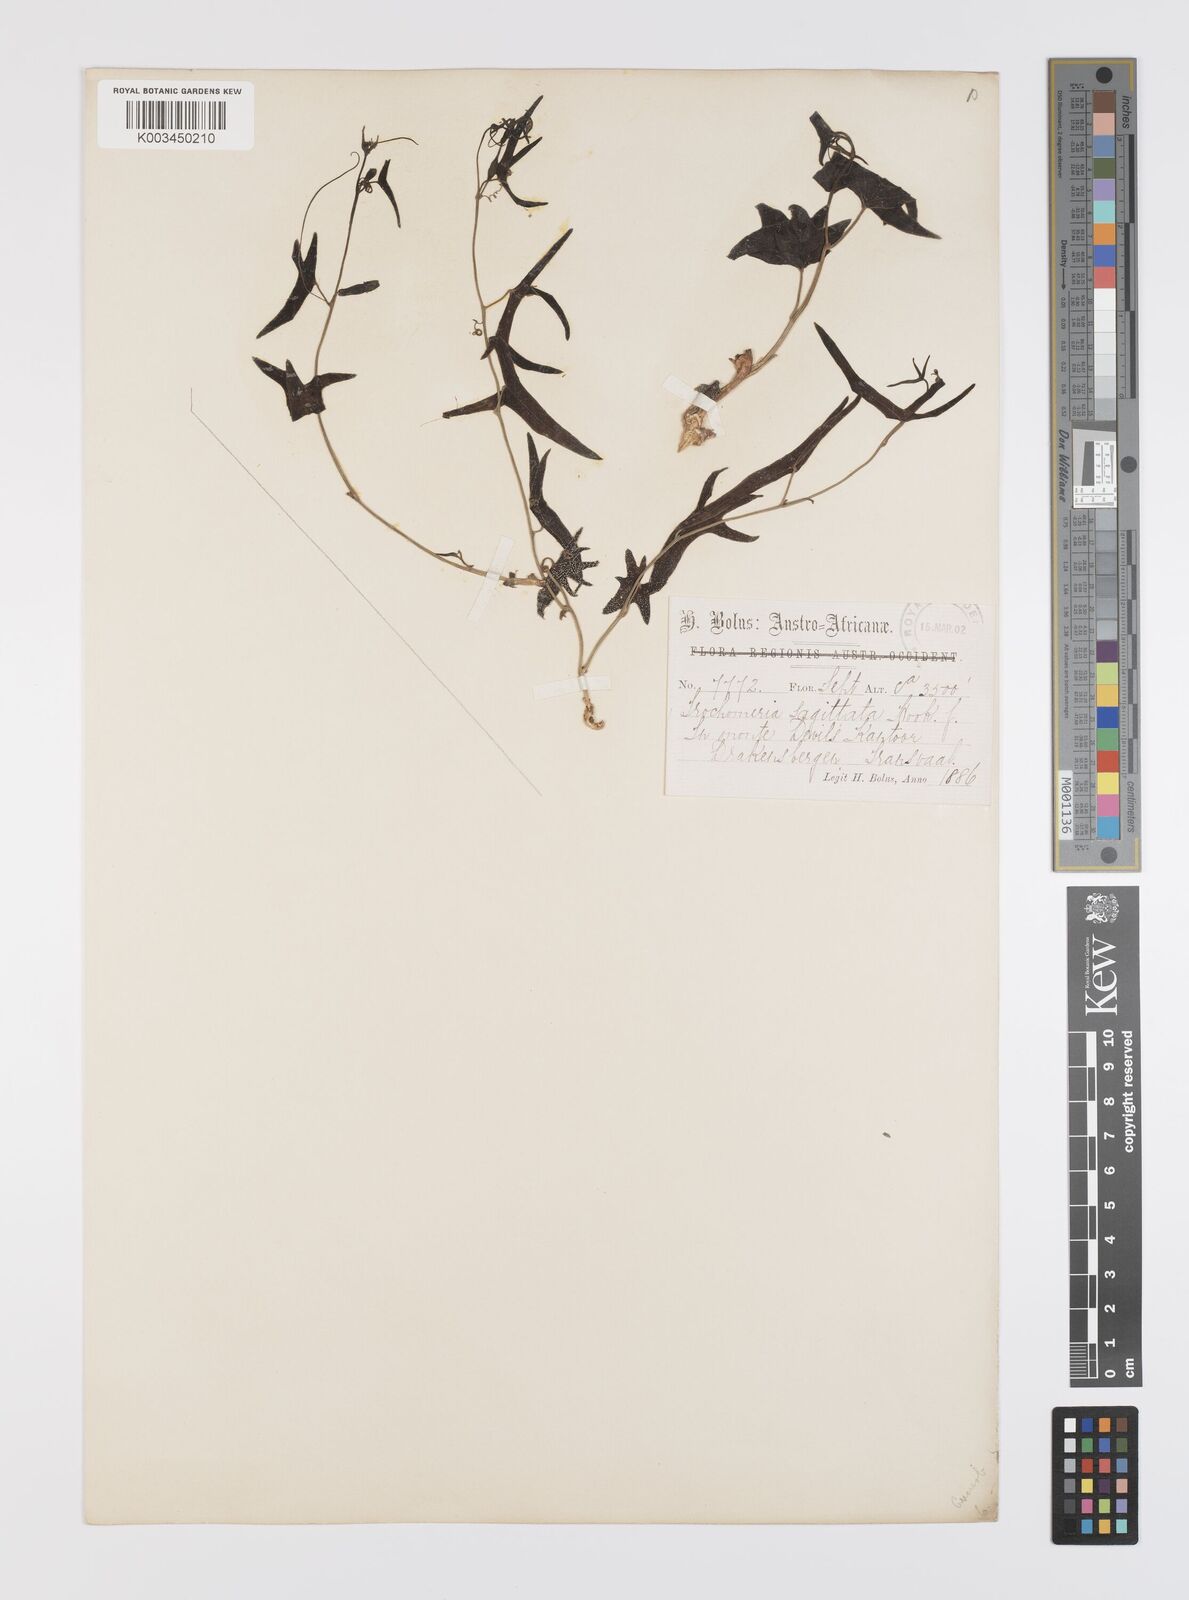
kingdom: Plantae
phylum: Tracheophyta
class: Magnoliopsida
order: Cucurbitales
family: Cucurbitaceae
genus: Trochomeria
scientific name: Trochomeria sagittata
